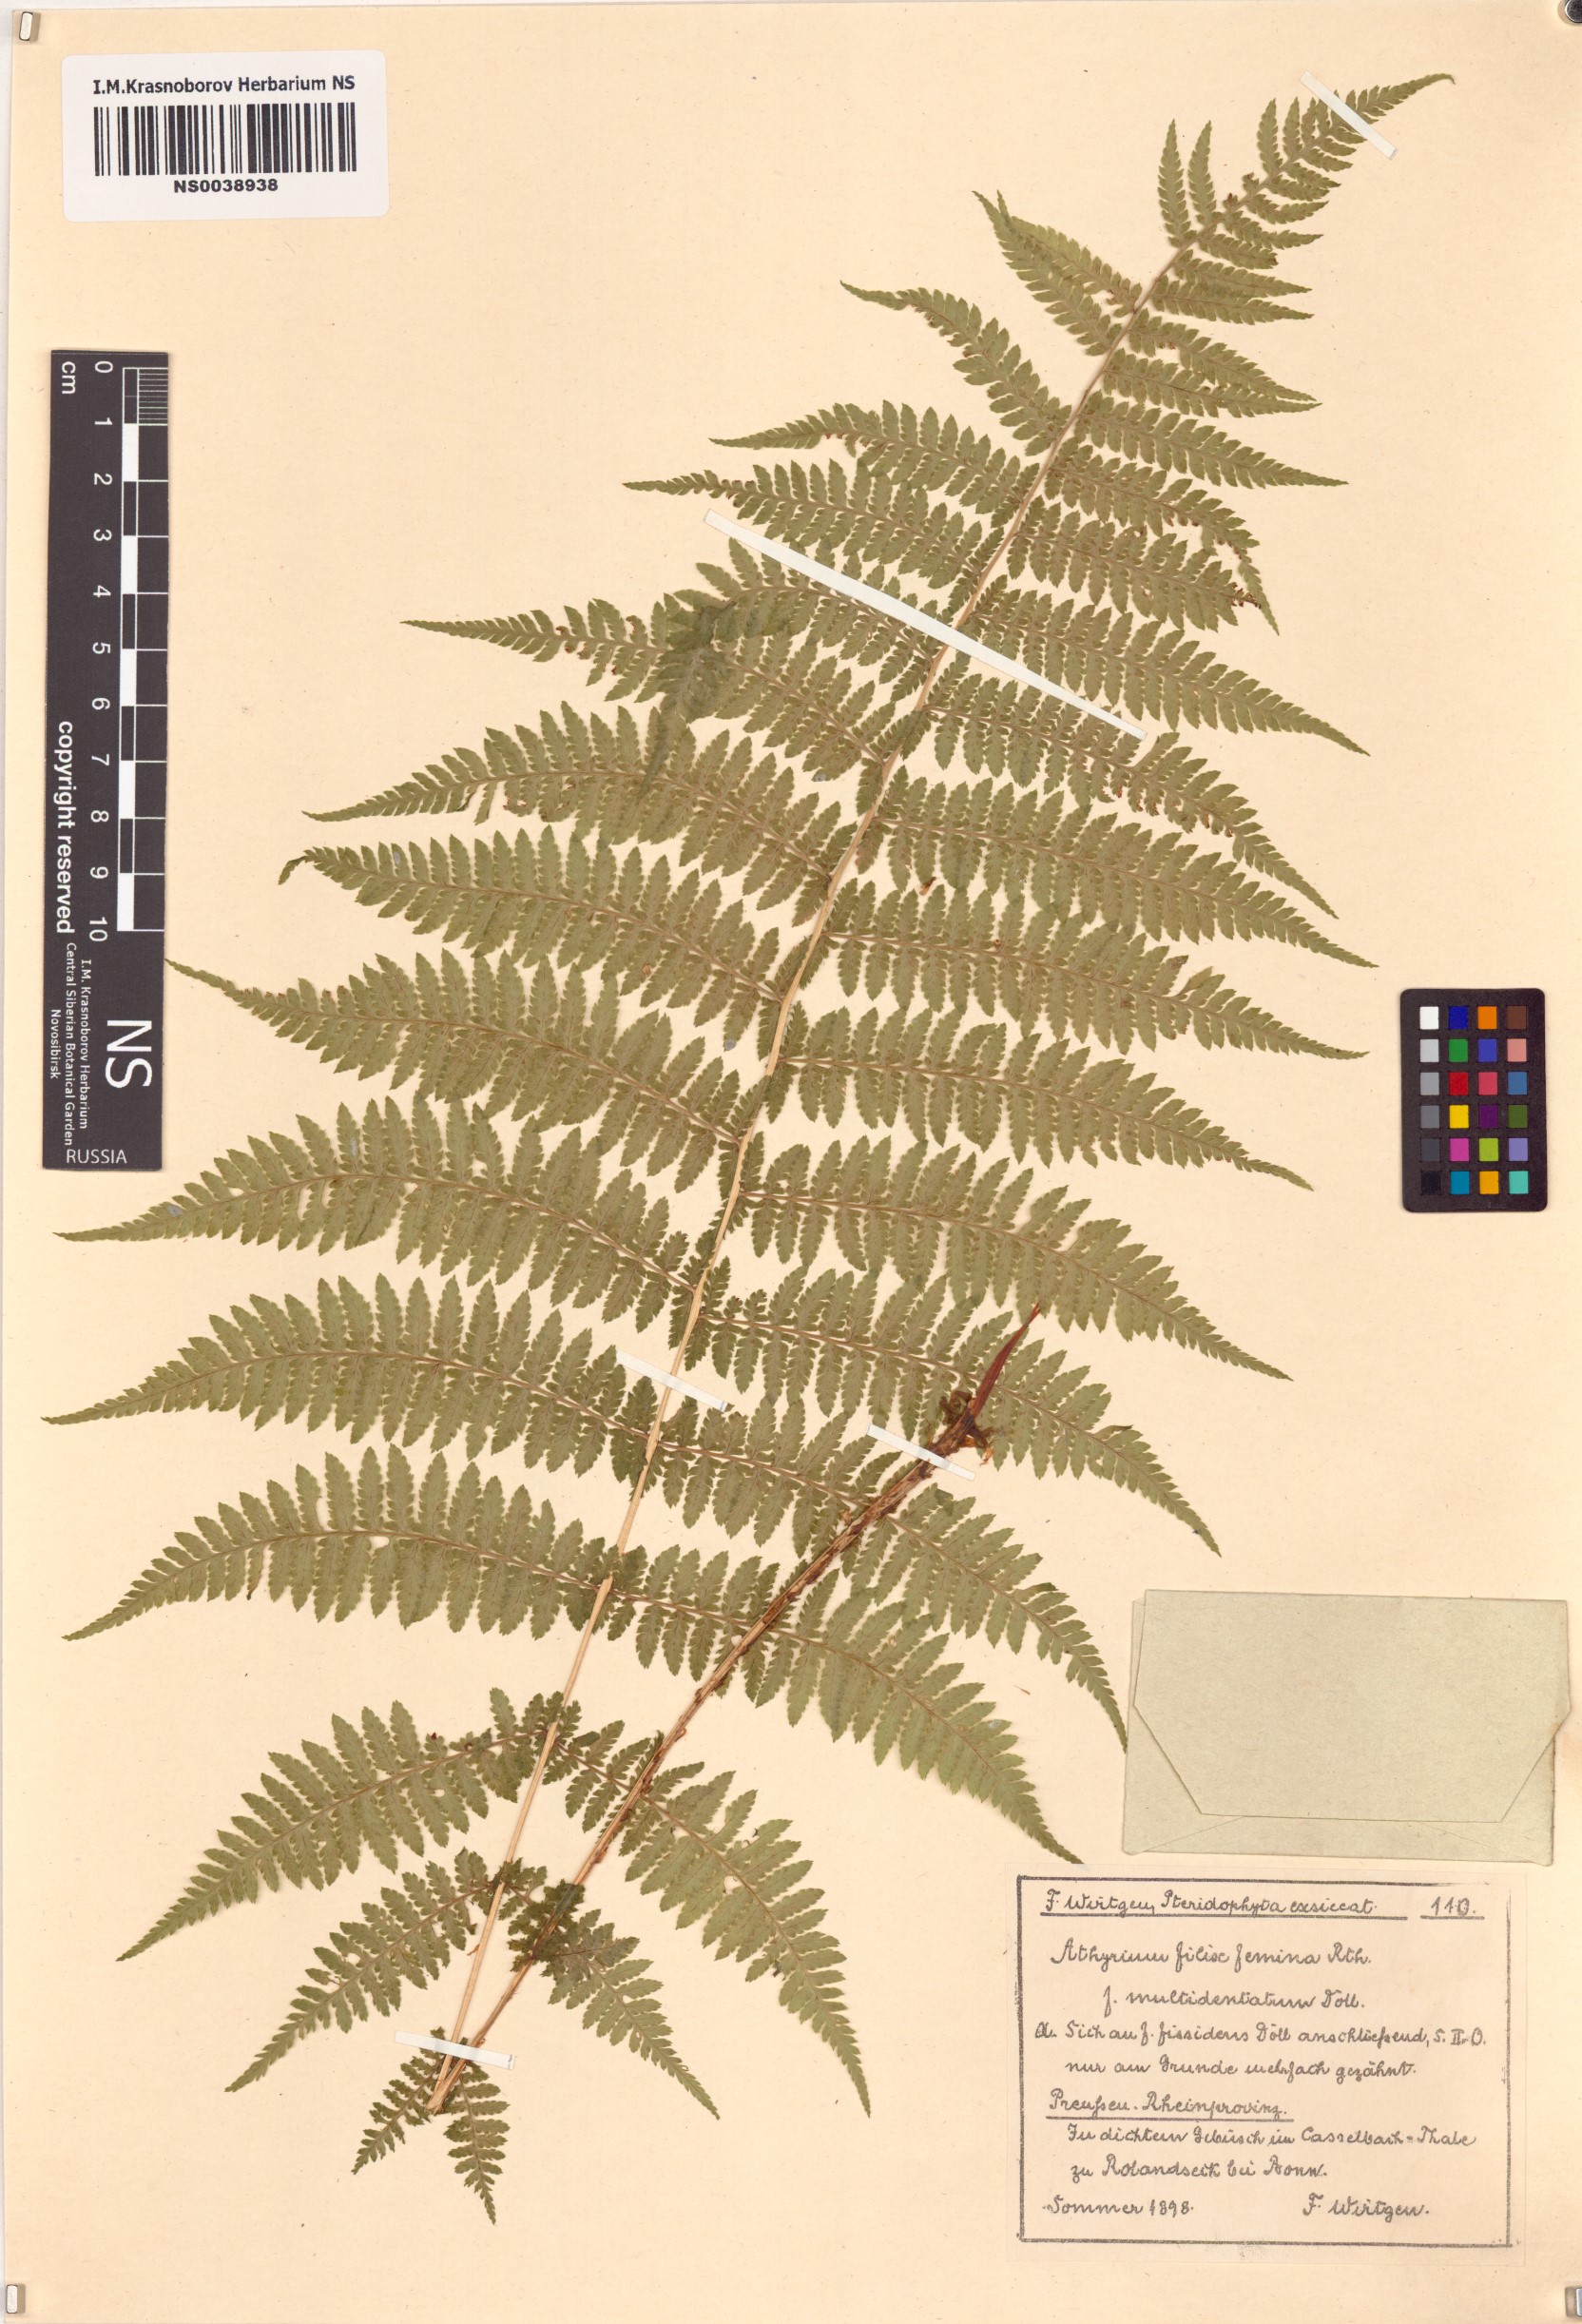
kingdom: Plantae
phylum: Tracheophyta
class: Polypodiopsida
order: Polypodiales
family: Athyriaceae
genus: Athyrium
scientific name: Athyrium filix-femina
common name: Lady fern
